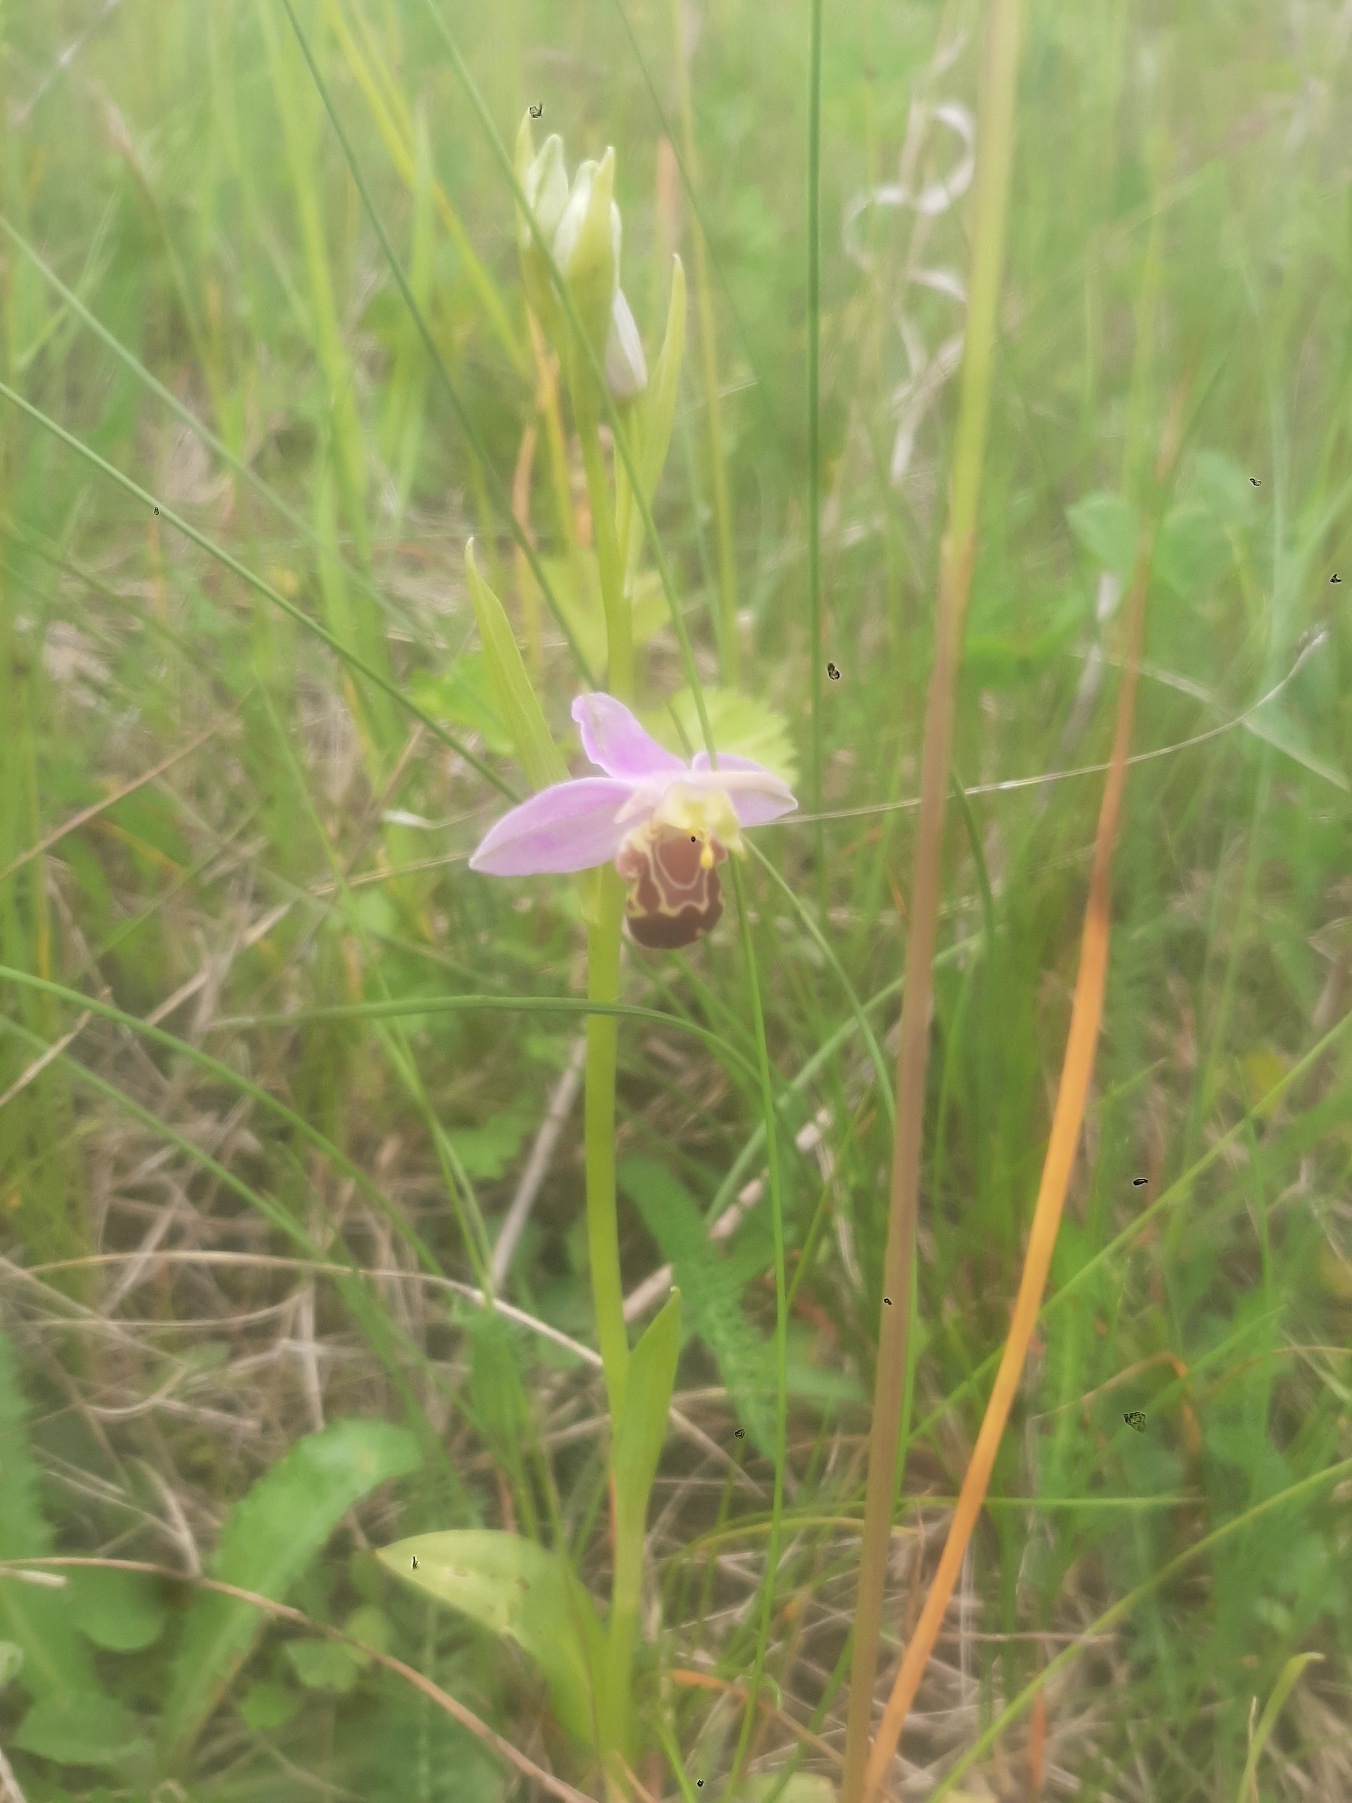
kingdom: Plantae
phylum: Tracheophyta
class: Liliopsida
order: Asparagales
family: Orchidaceae
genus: Ophrys
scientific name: Ophrys apifera
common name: Biblomst
